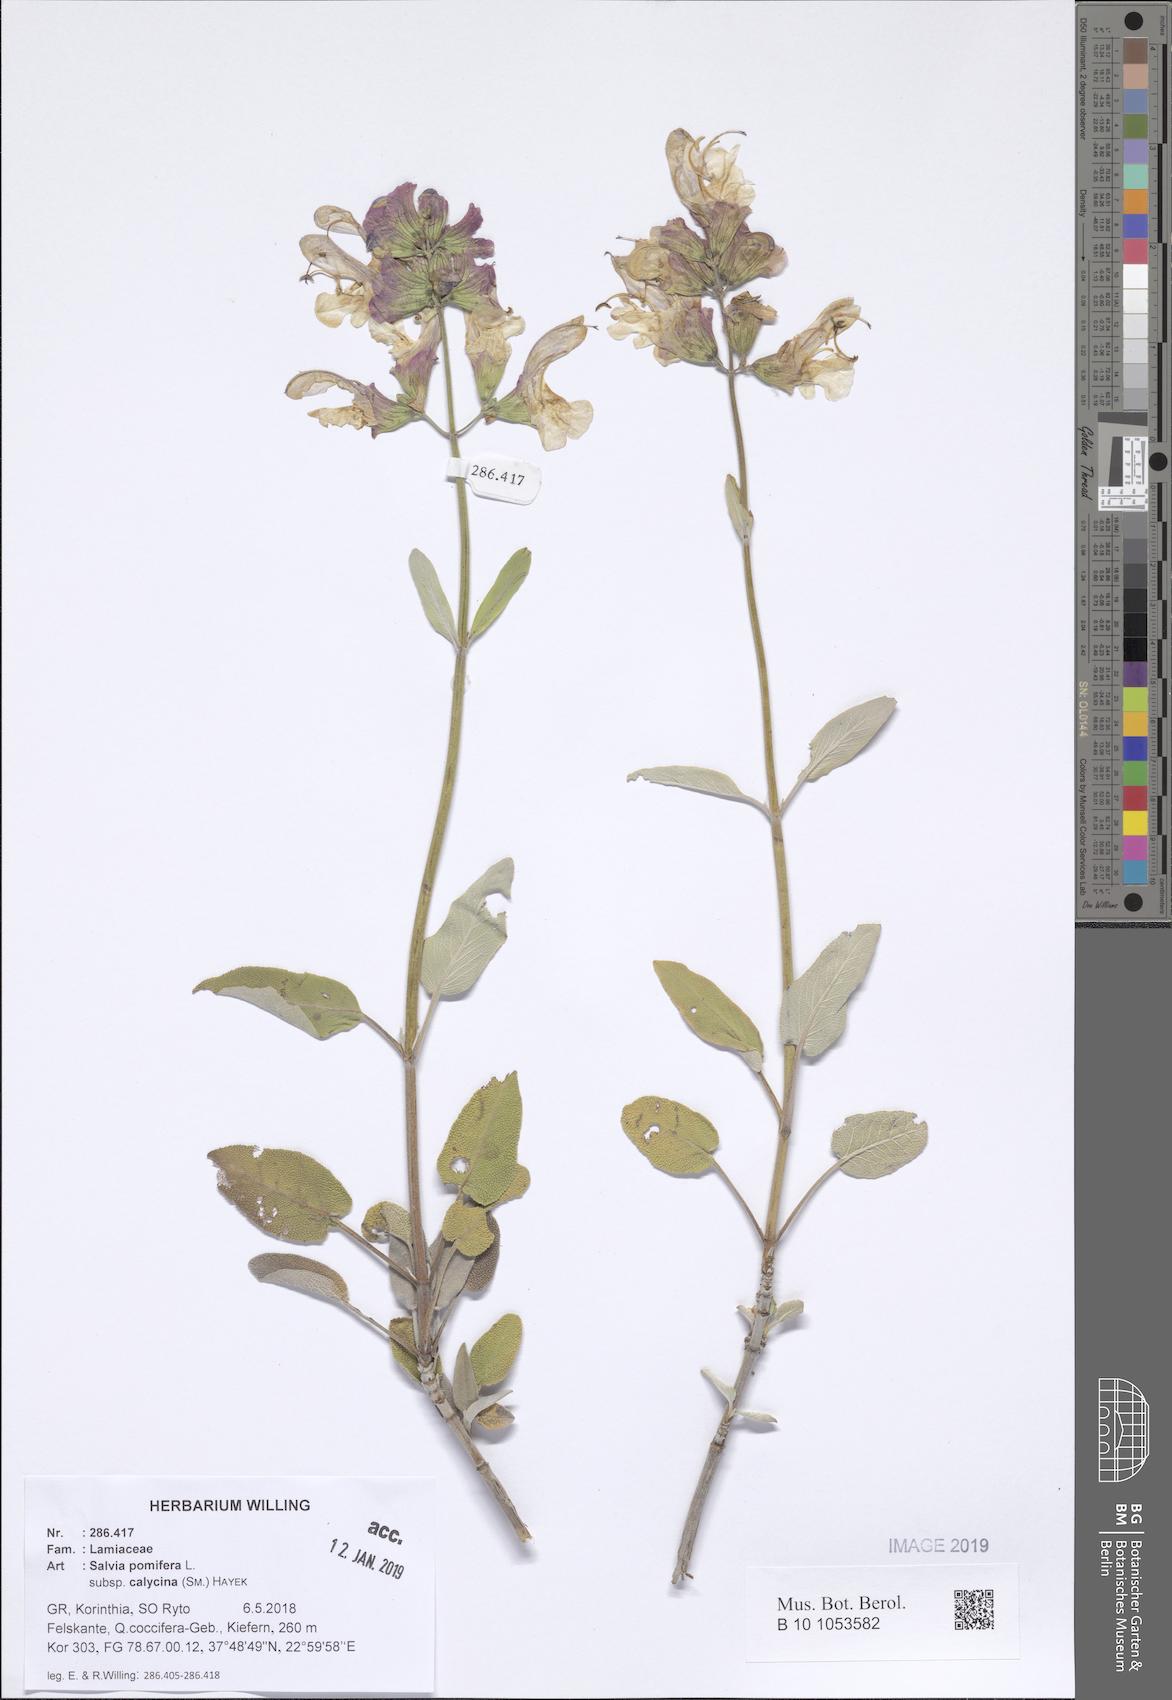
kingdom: Plantae
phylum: Tracheophyta
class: Magnoliopsida
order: Lamiales
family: Lamiaceae
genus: Salvia
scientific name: Salvia pomifera
